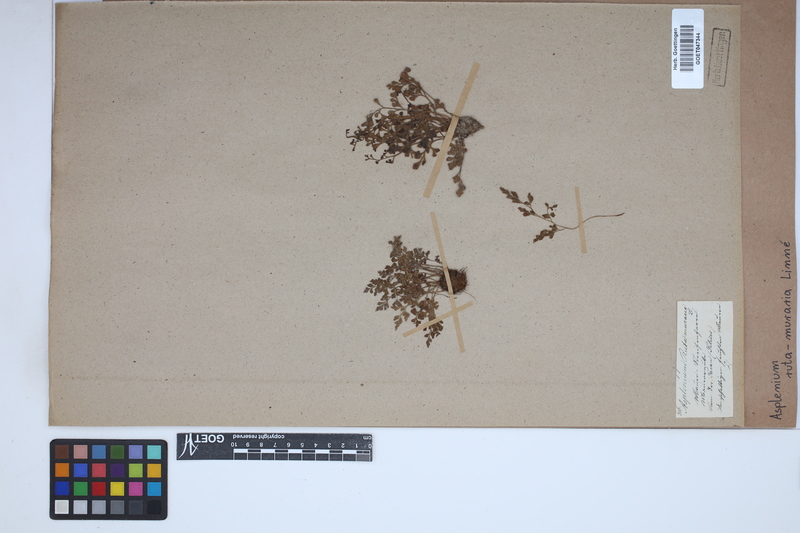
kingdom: Plantae
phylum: Tracheophyta
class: Polypodiopsida
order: Polypodiales
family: Aspleniaceae
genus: Asplenium
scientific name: Asplenium ruta-muraria
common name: Wall-rue
